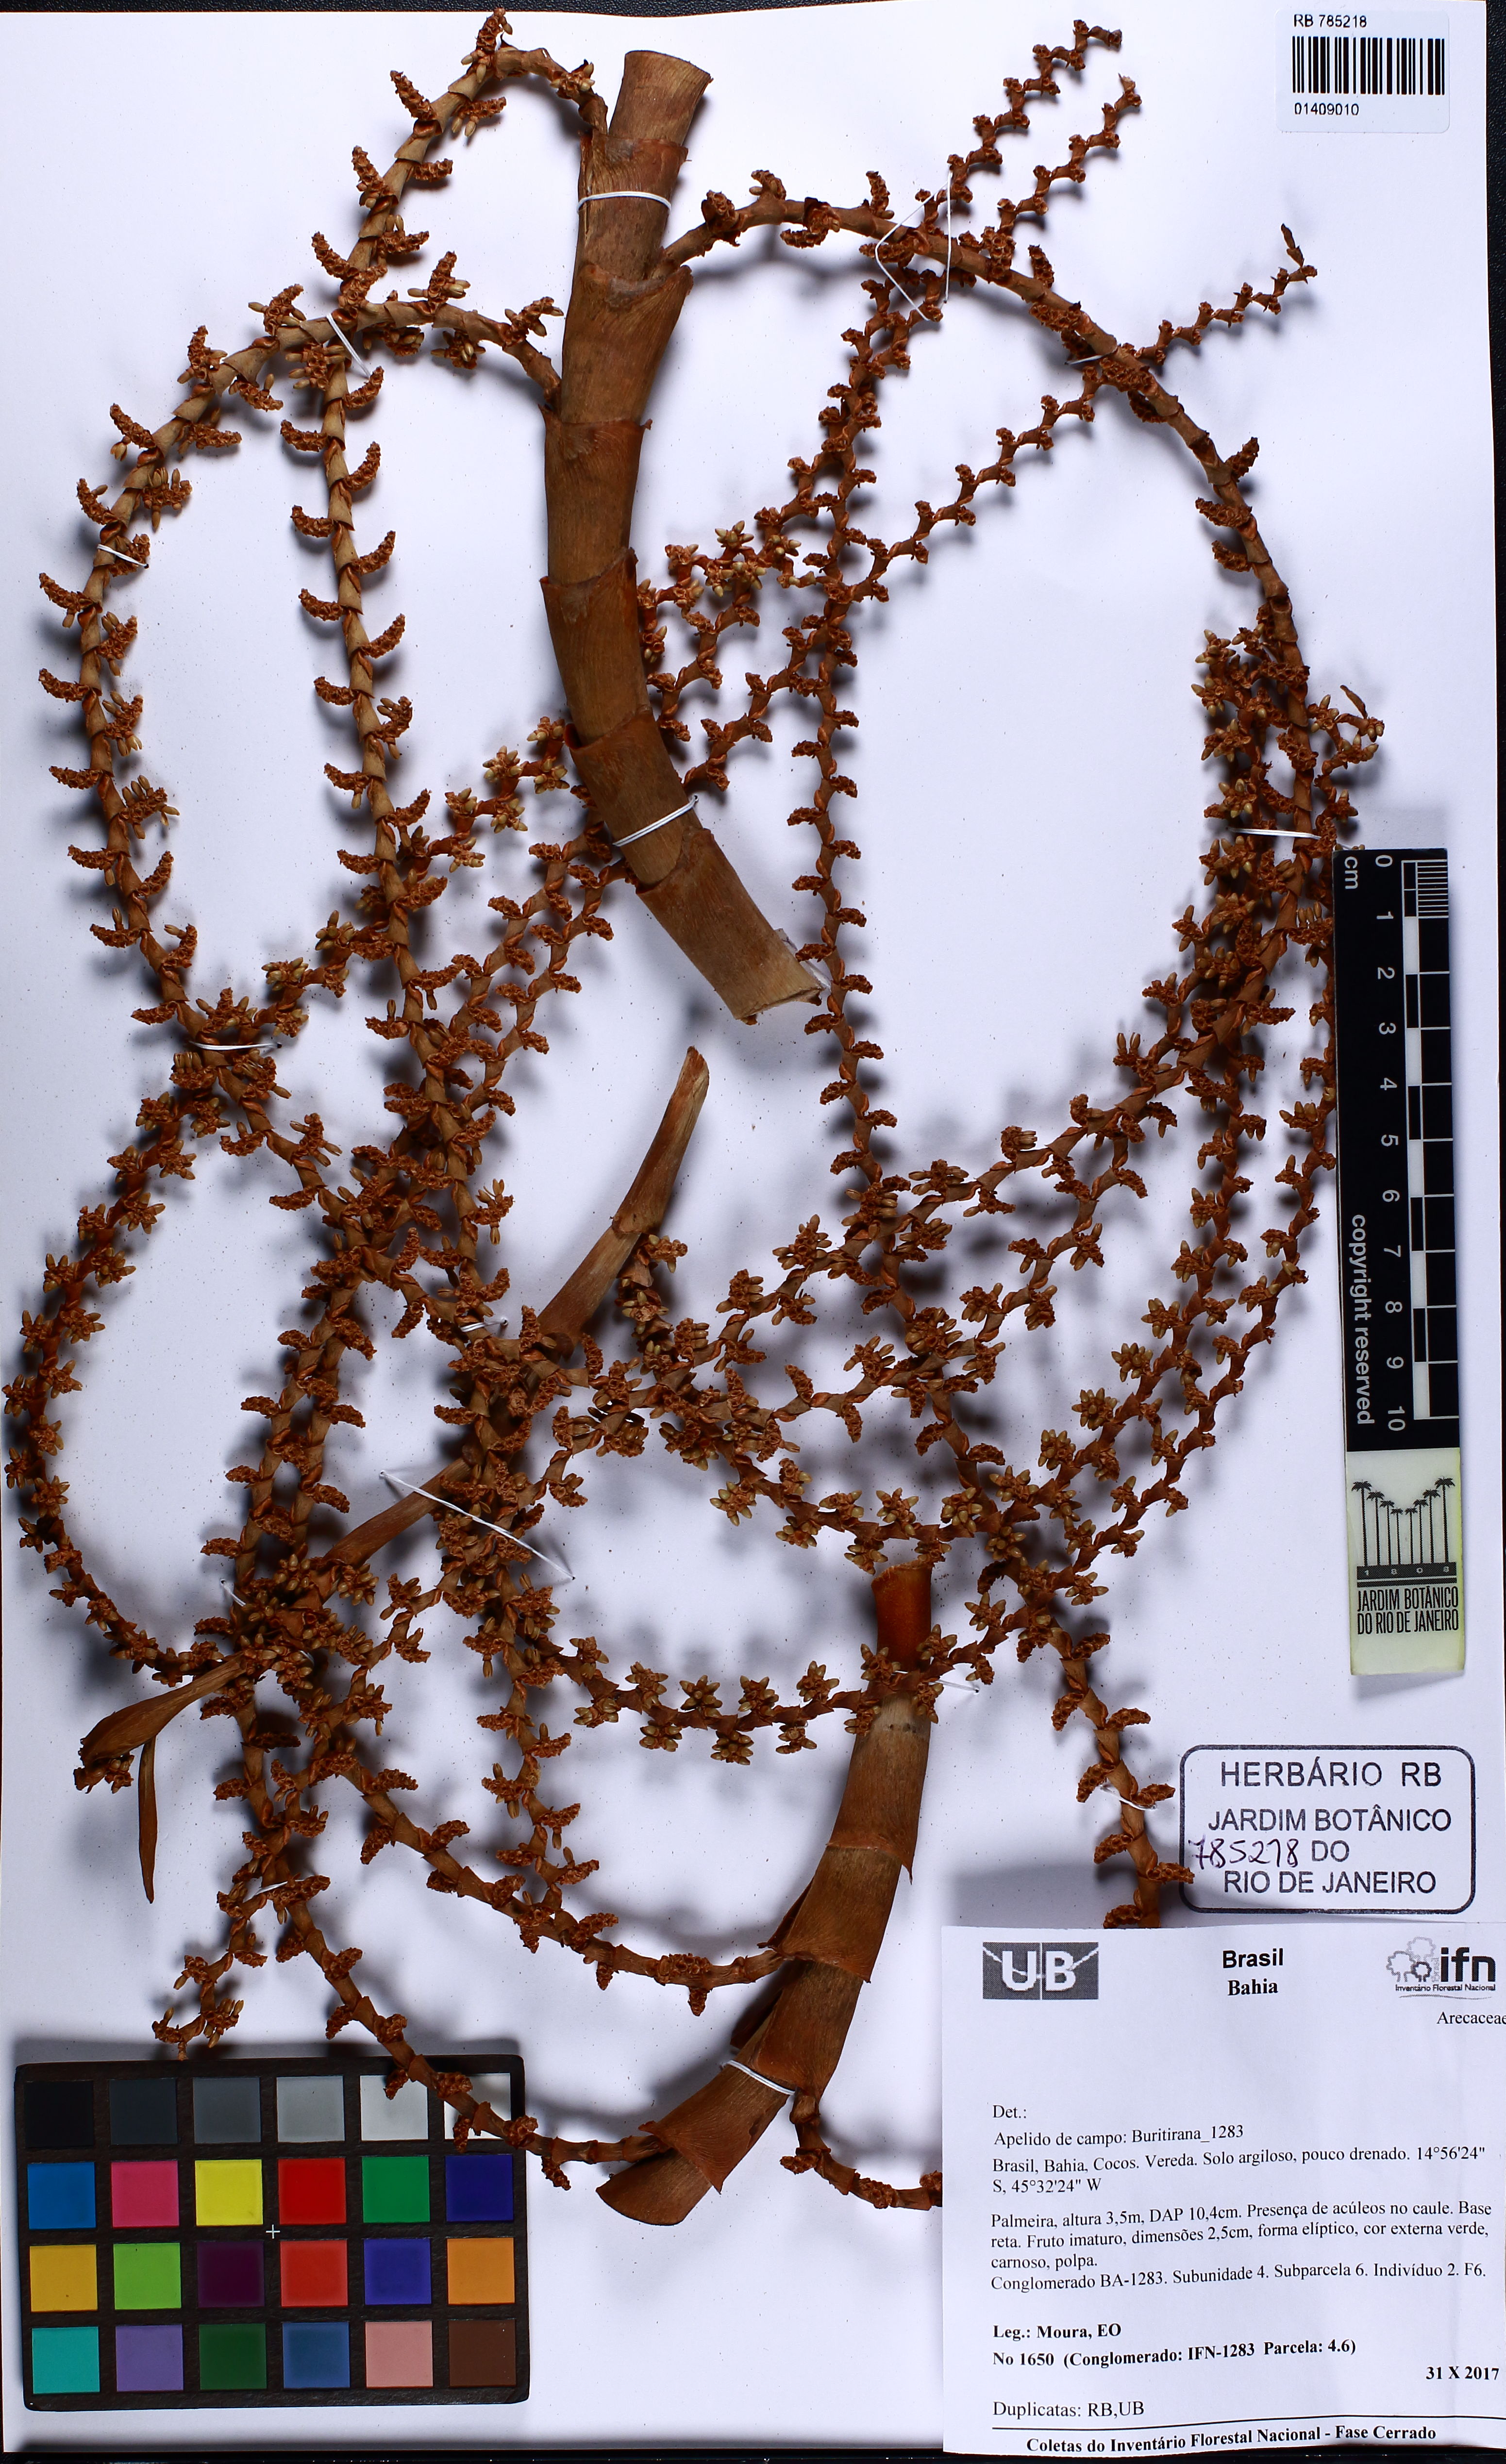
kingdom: Plantae
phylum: Tracheophyta
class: Liliopsida
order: Arecales
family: Arecaceae
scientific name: Arecaceae
